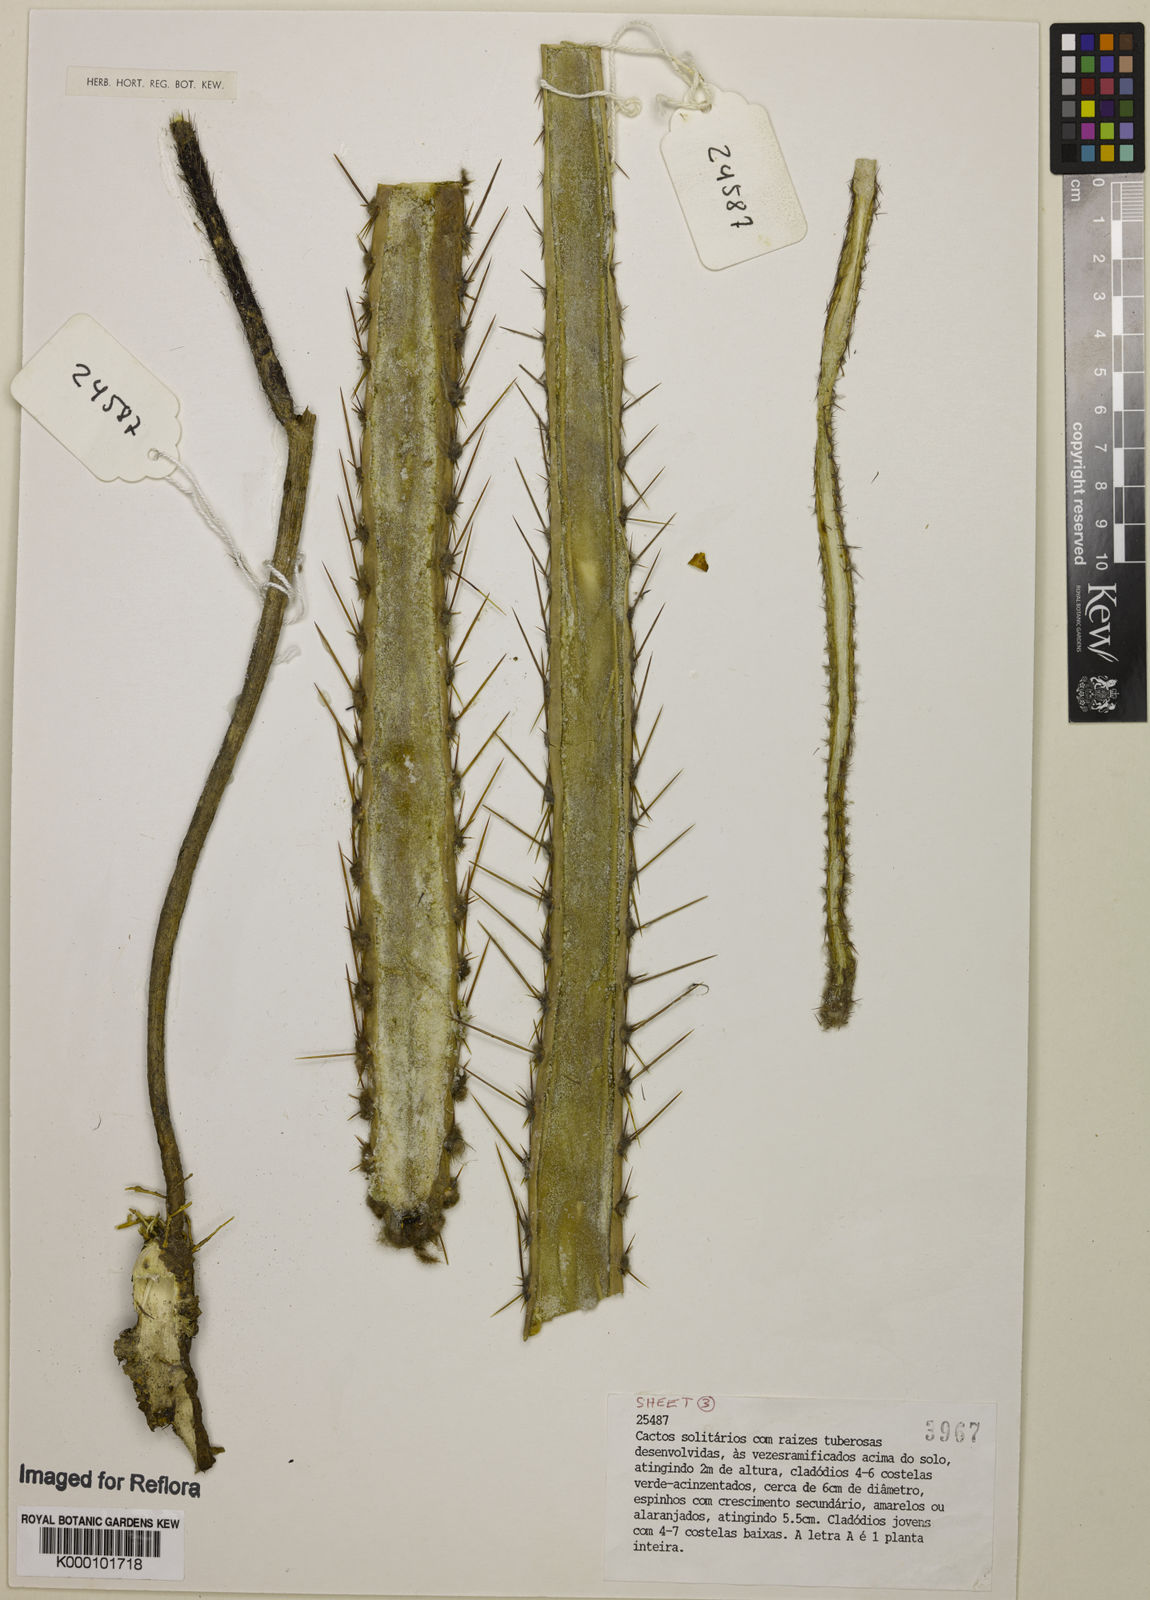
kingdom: Plantae
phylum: Tracheophyta
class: Magnoliopsida
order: Caryophyllales
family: Cactaceae
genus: Cipocereus
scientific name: Cipocereus crassisepalus
